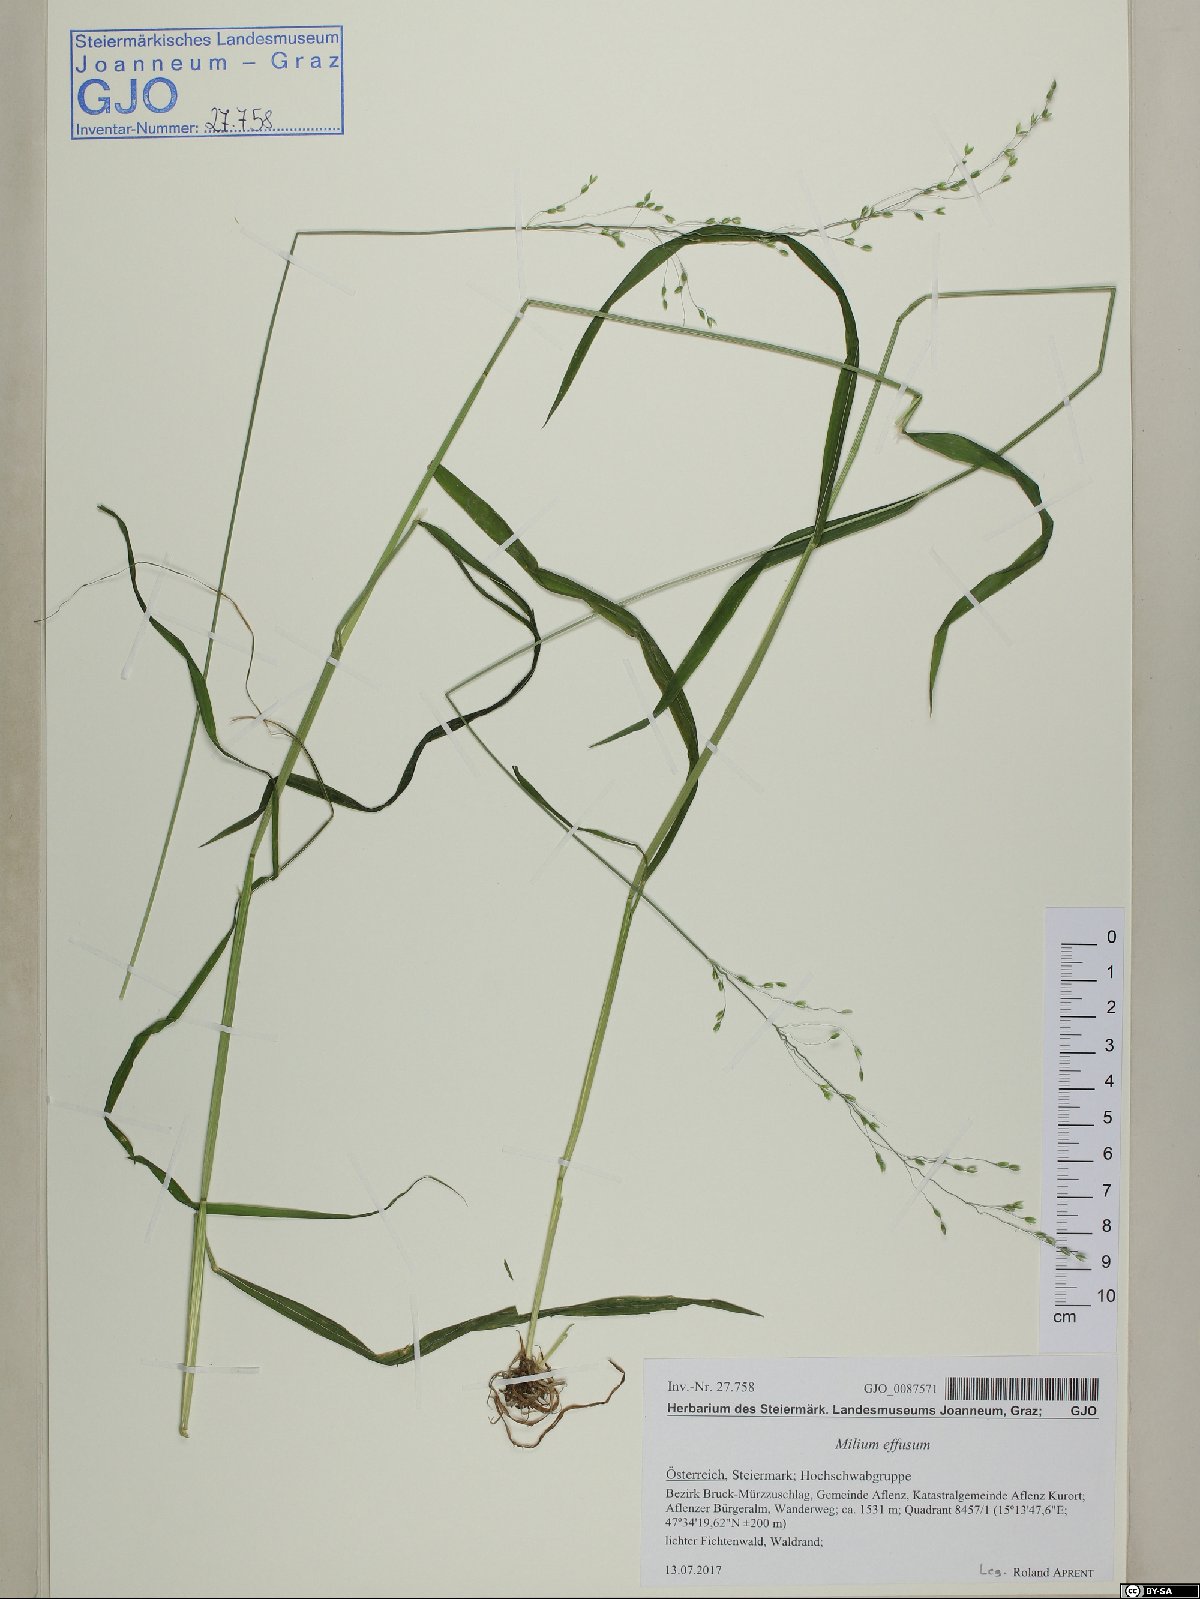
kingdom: Plantae
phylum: Tracheophyta
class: Liliopsida
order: Poales
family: Poaceae
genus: Milium
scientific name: Milium effusum
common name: Wood millet
